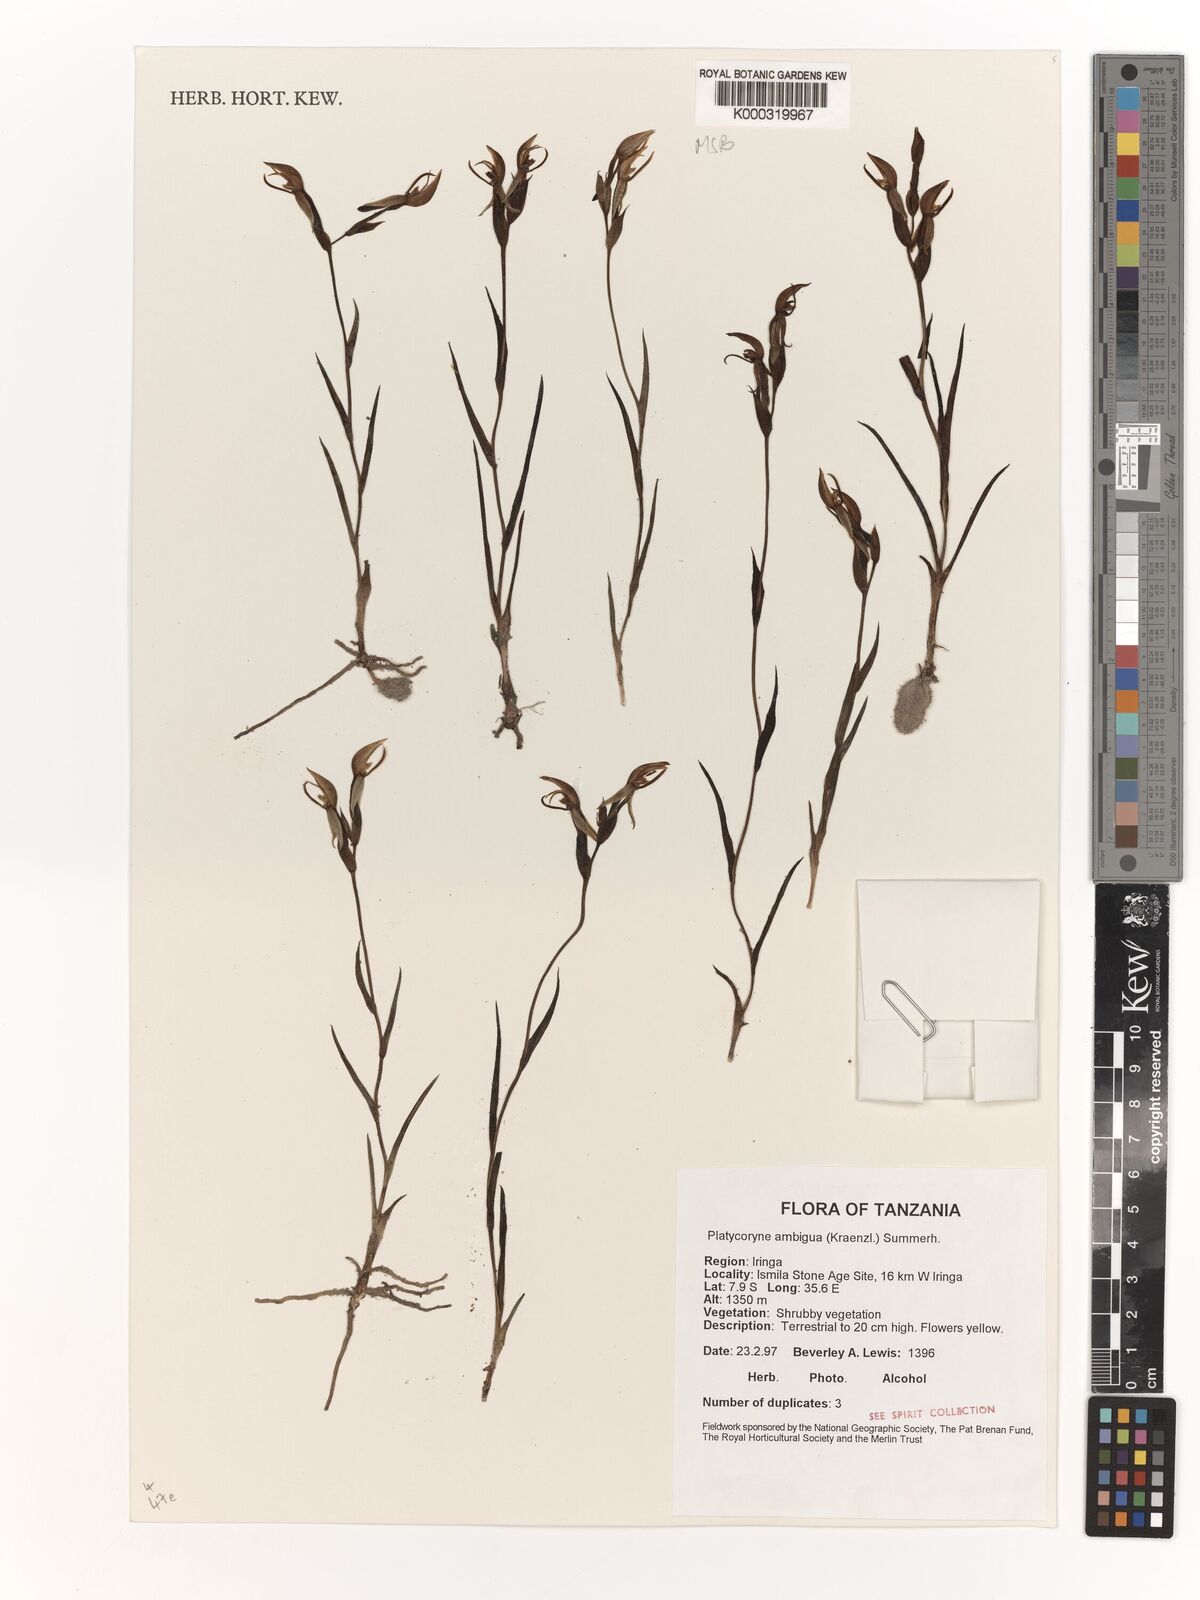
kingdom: Plantae
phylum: Tracheophyta
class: Liliopsida
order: Asparagales
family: Orchidaceae
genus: Platycoryne
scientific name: Platycoryne ambigua
